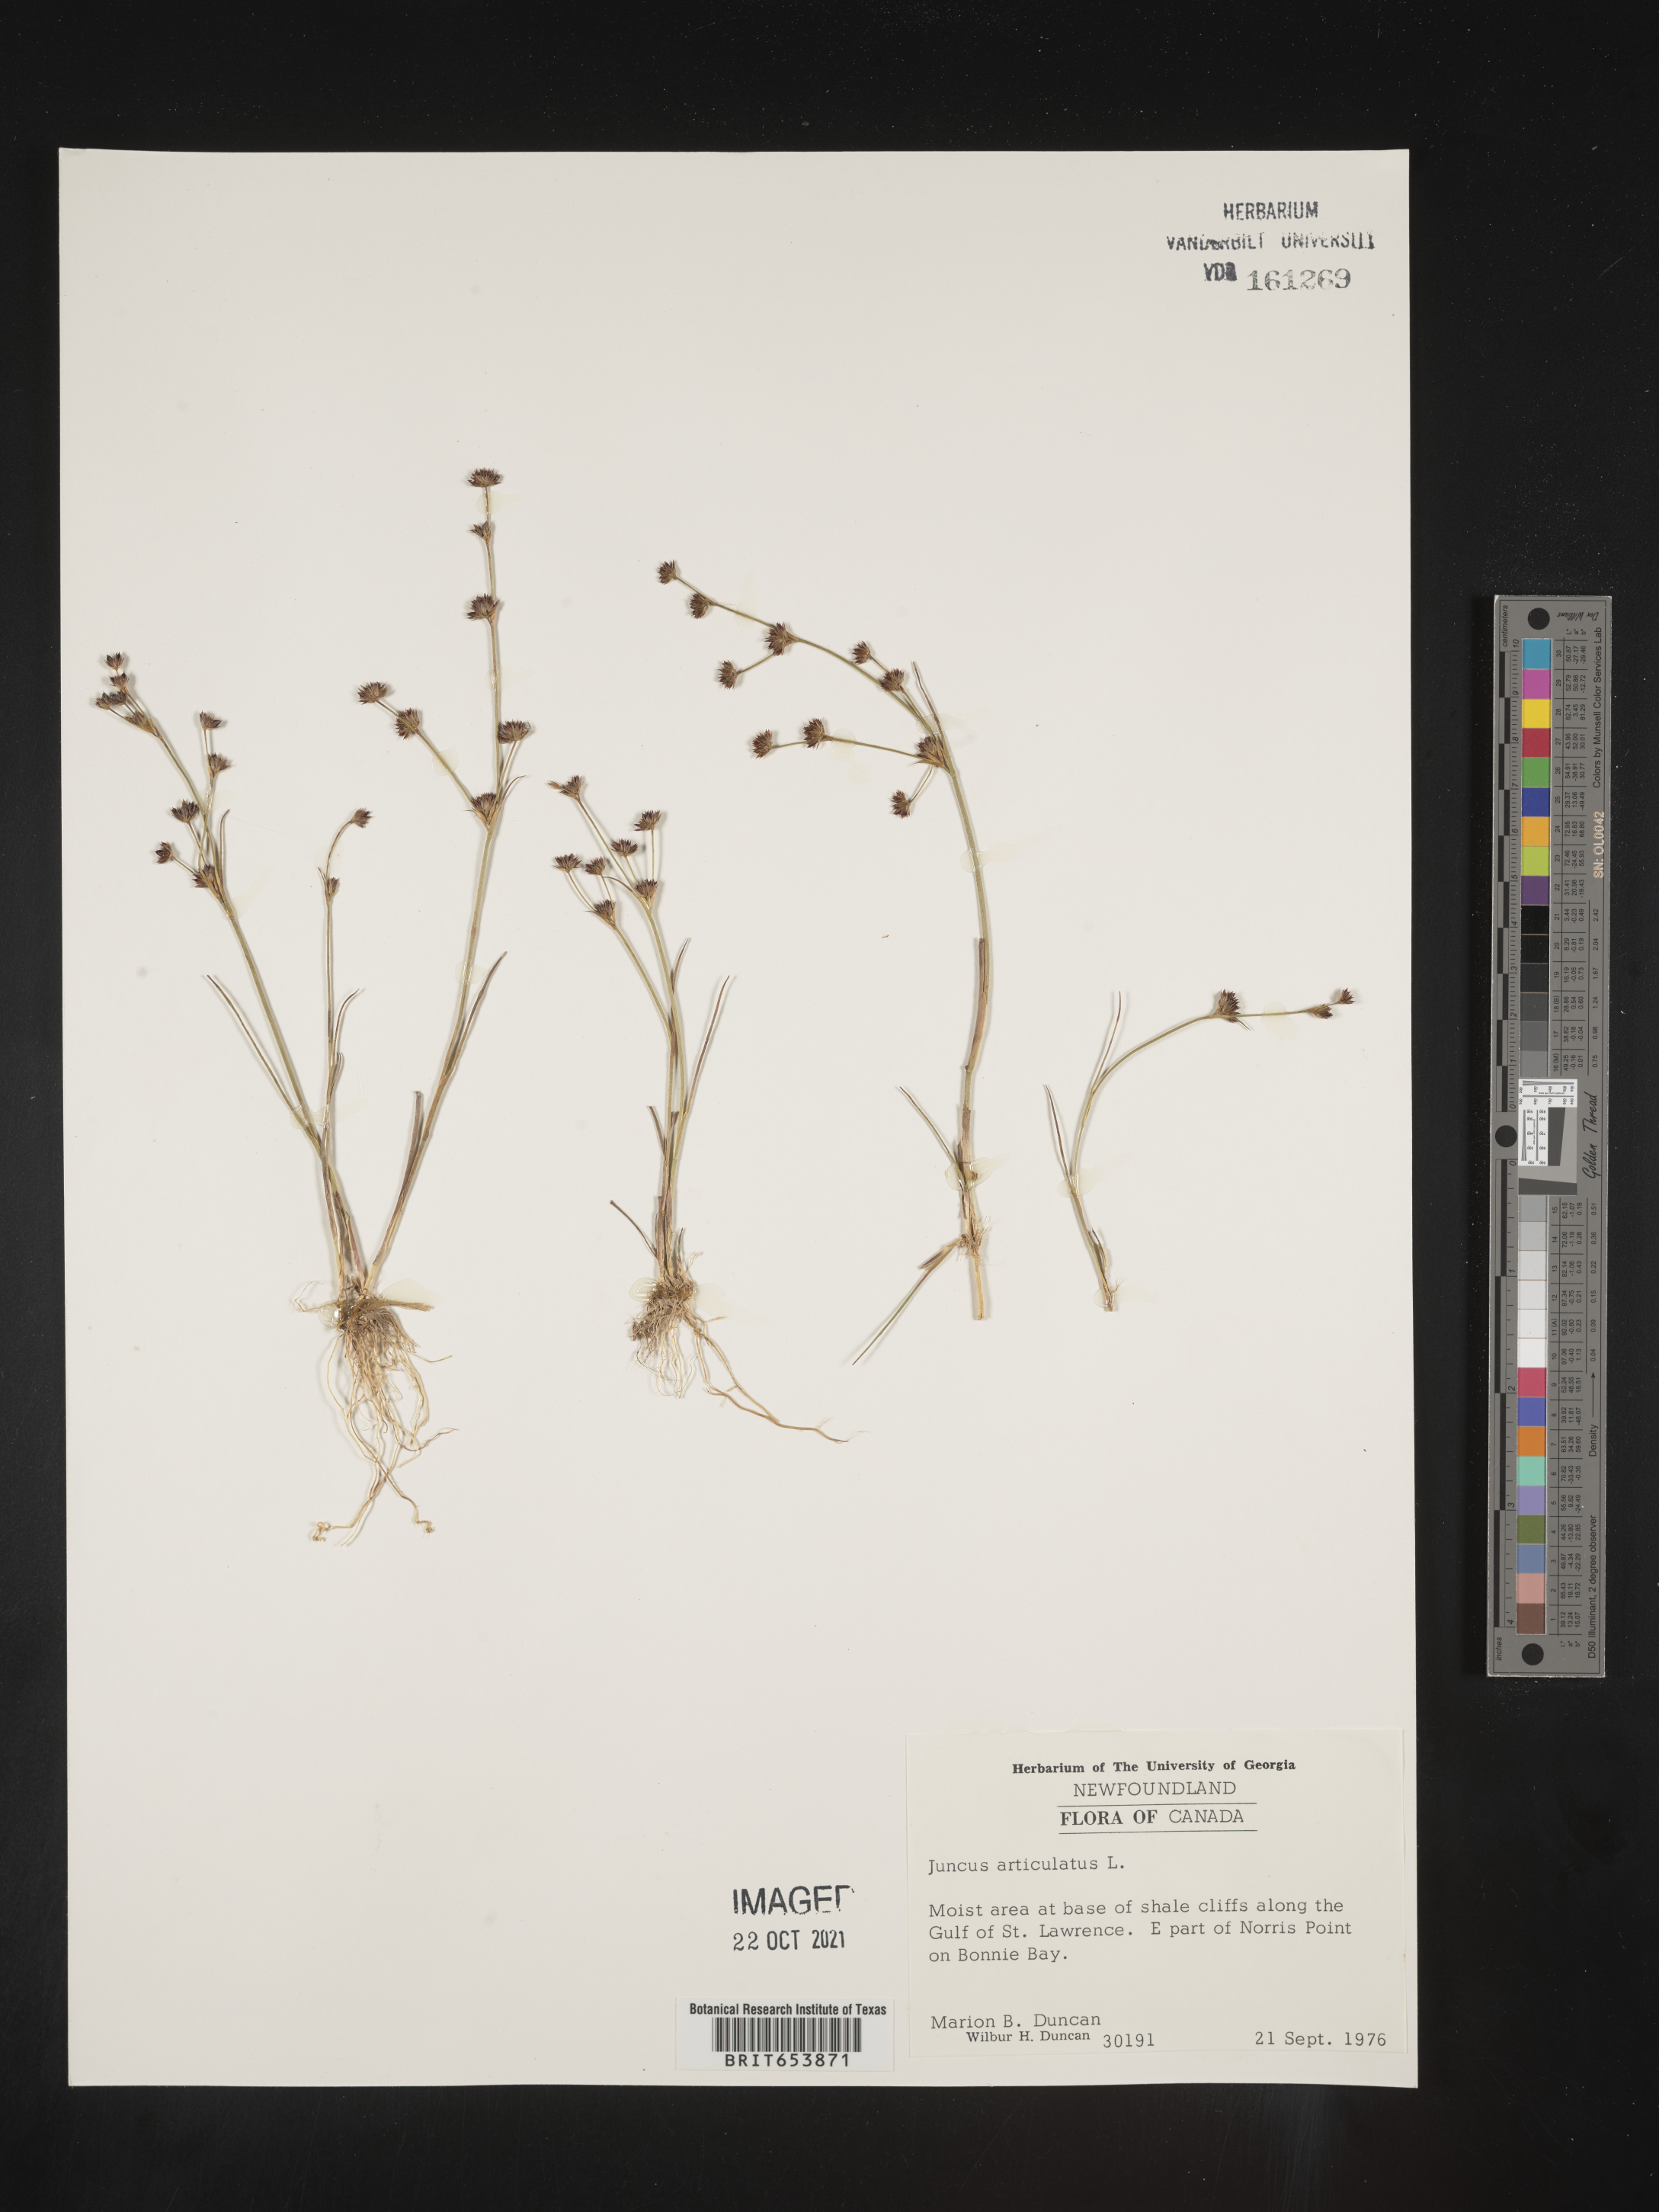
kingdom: Plantae
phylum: Tracheophyta
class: Liliopsida
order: Poales
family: Juncaceae
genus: Juncus
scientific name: Juncus articulatus
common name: Jointed rush
